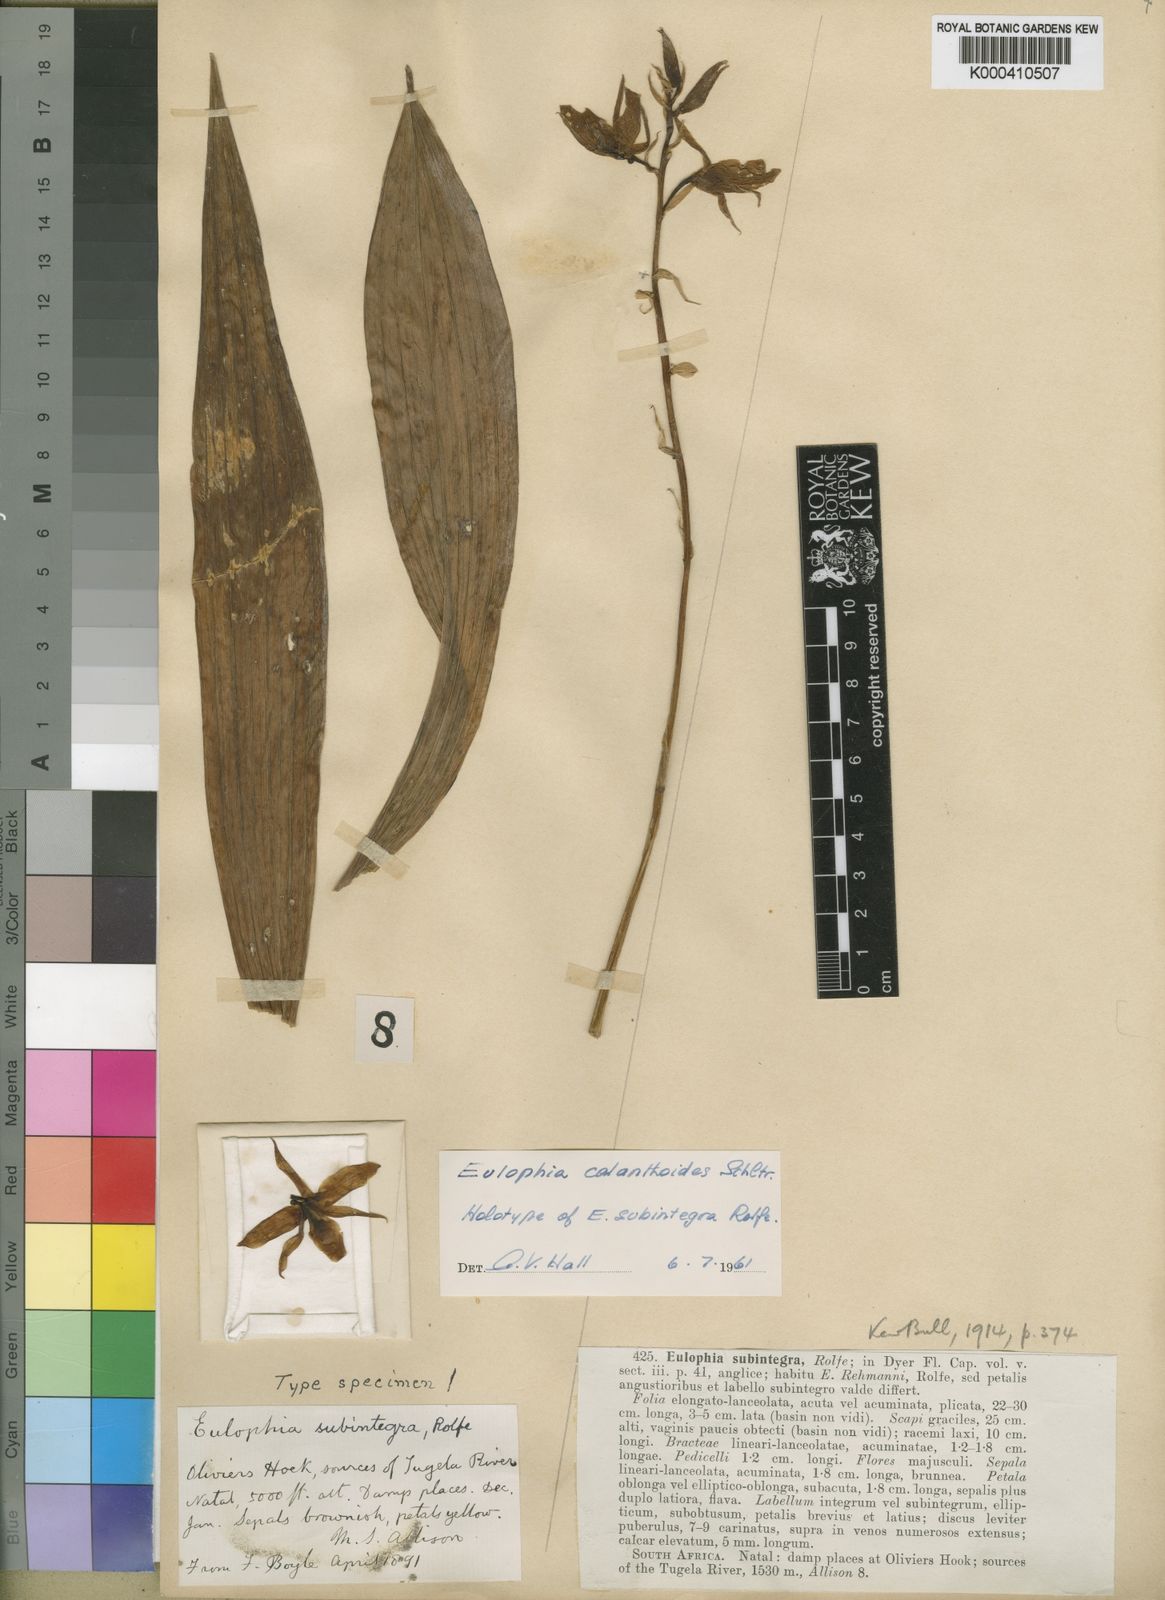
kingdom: Plantae
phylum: Tracheophyta
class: Liliopsida
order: Asparagales
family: Orchidaceae
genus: Eulophia
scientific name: Eulophia calanthoides
